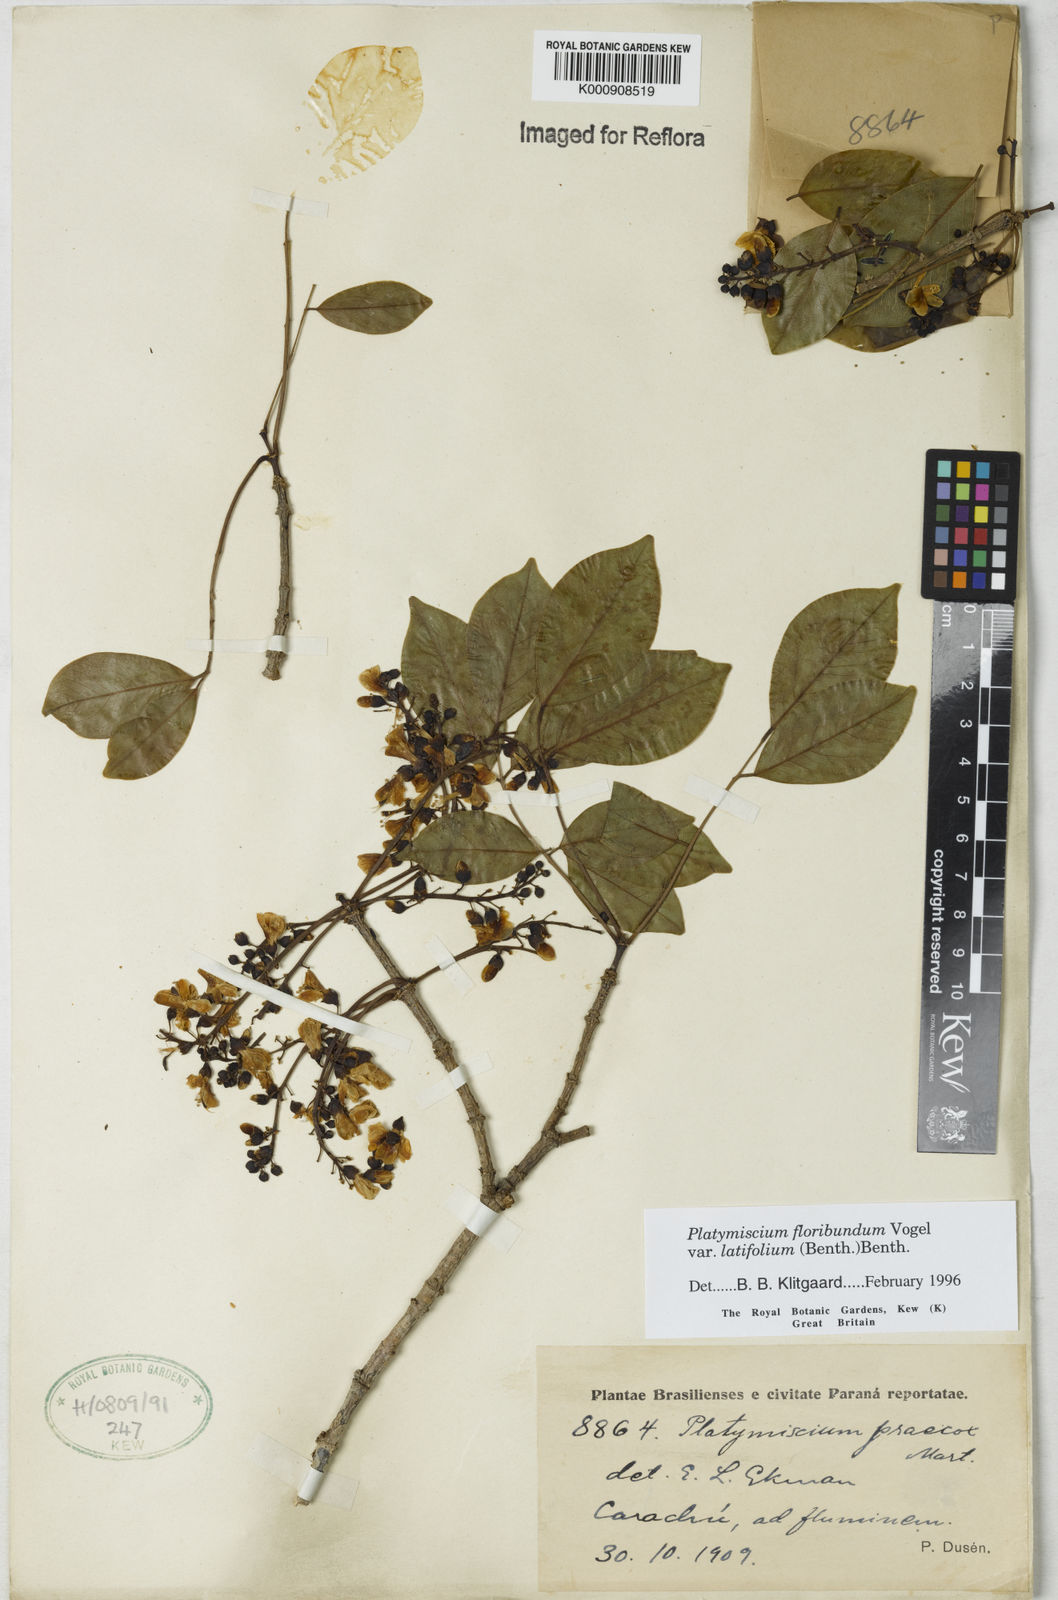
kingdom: Plantae
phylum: Tracheophyta
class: Magnoliopsida
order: Fabales
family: Fabaceae
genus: Platymiscium
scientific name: Platymiscium floribundum
